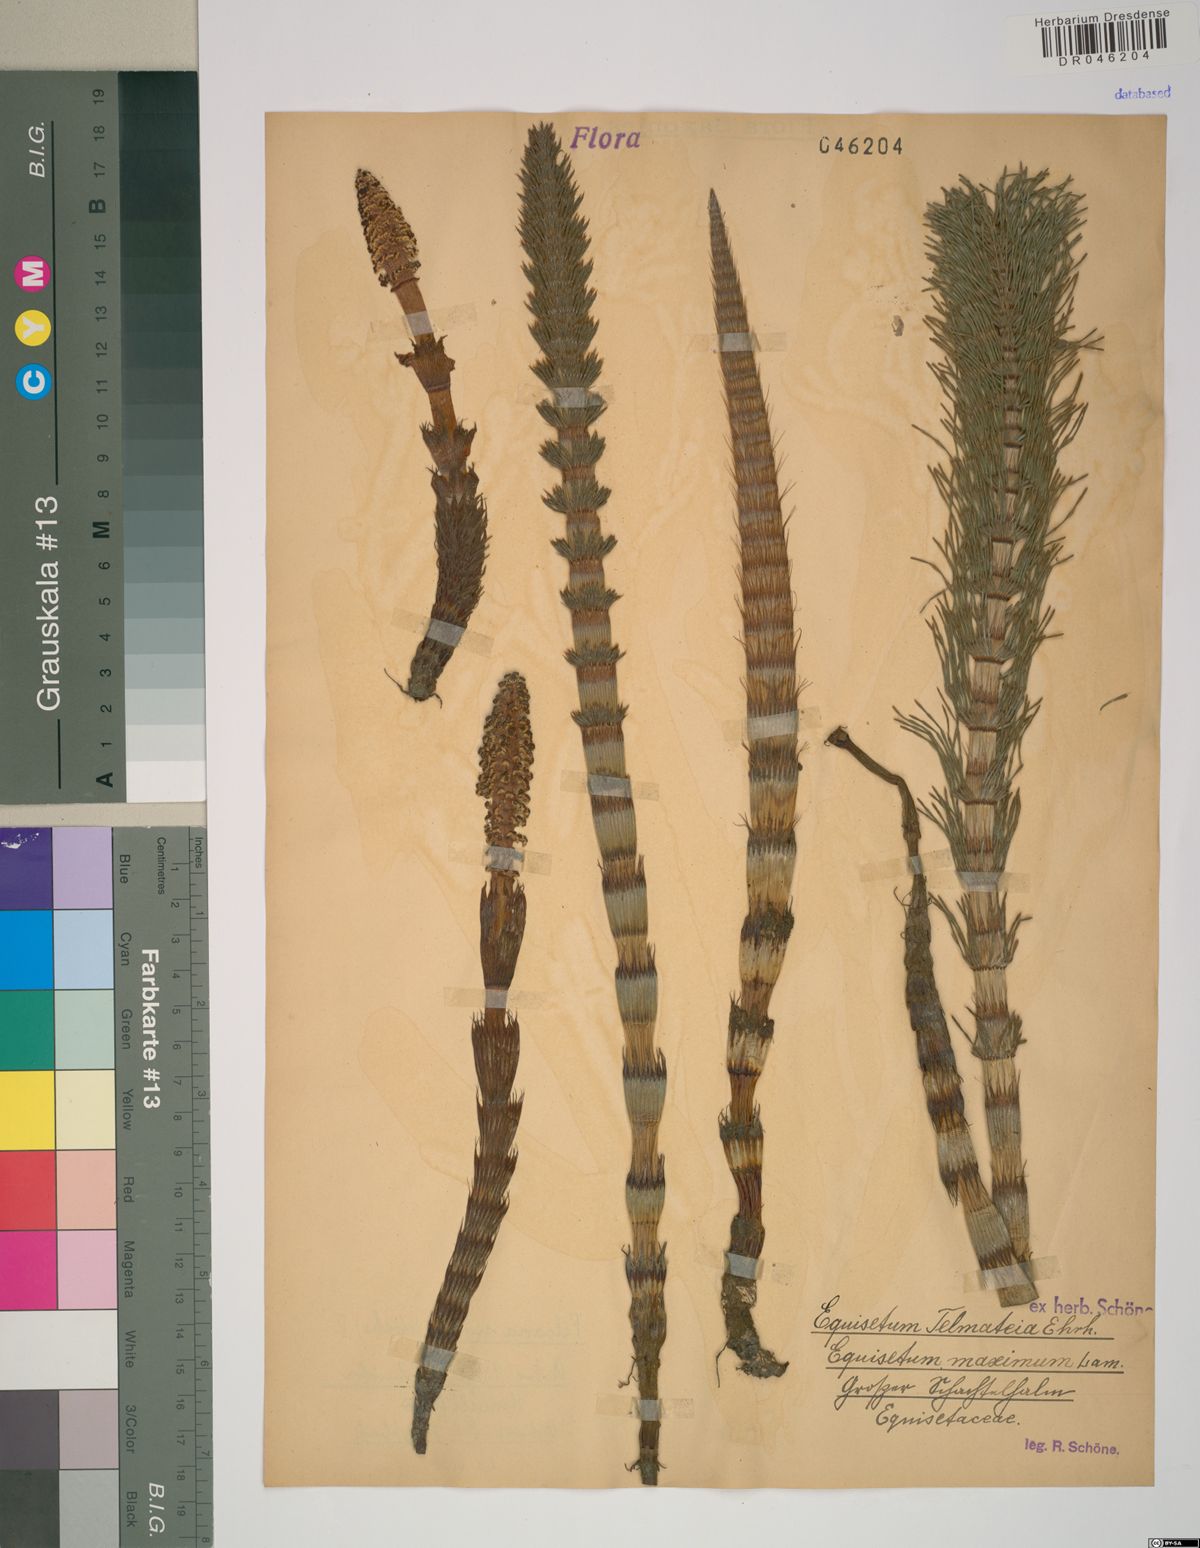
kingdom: Plantae
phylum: Tracheophyta
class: Polypodiopsida
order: Equisetales
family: Equisetaceae
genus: Equisetum
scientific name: Equisetum telmateia
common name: Great horsetail
